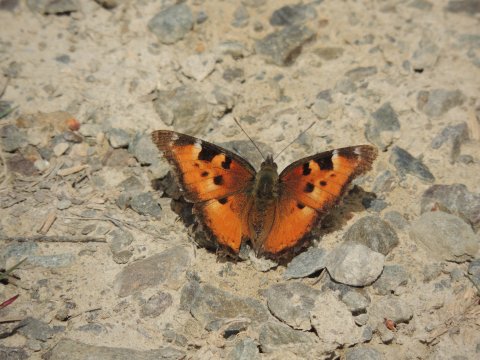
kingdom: Animalia
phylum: Arthropoda
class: Insecta
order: Lepidoptera
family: Nymphalidae
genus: Nymphalis
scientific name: Nymphalis californica
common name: California Tortoiseshell
